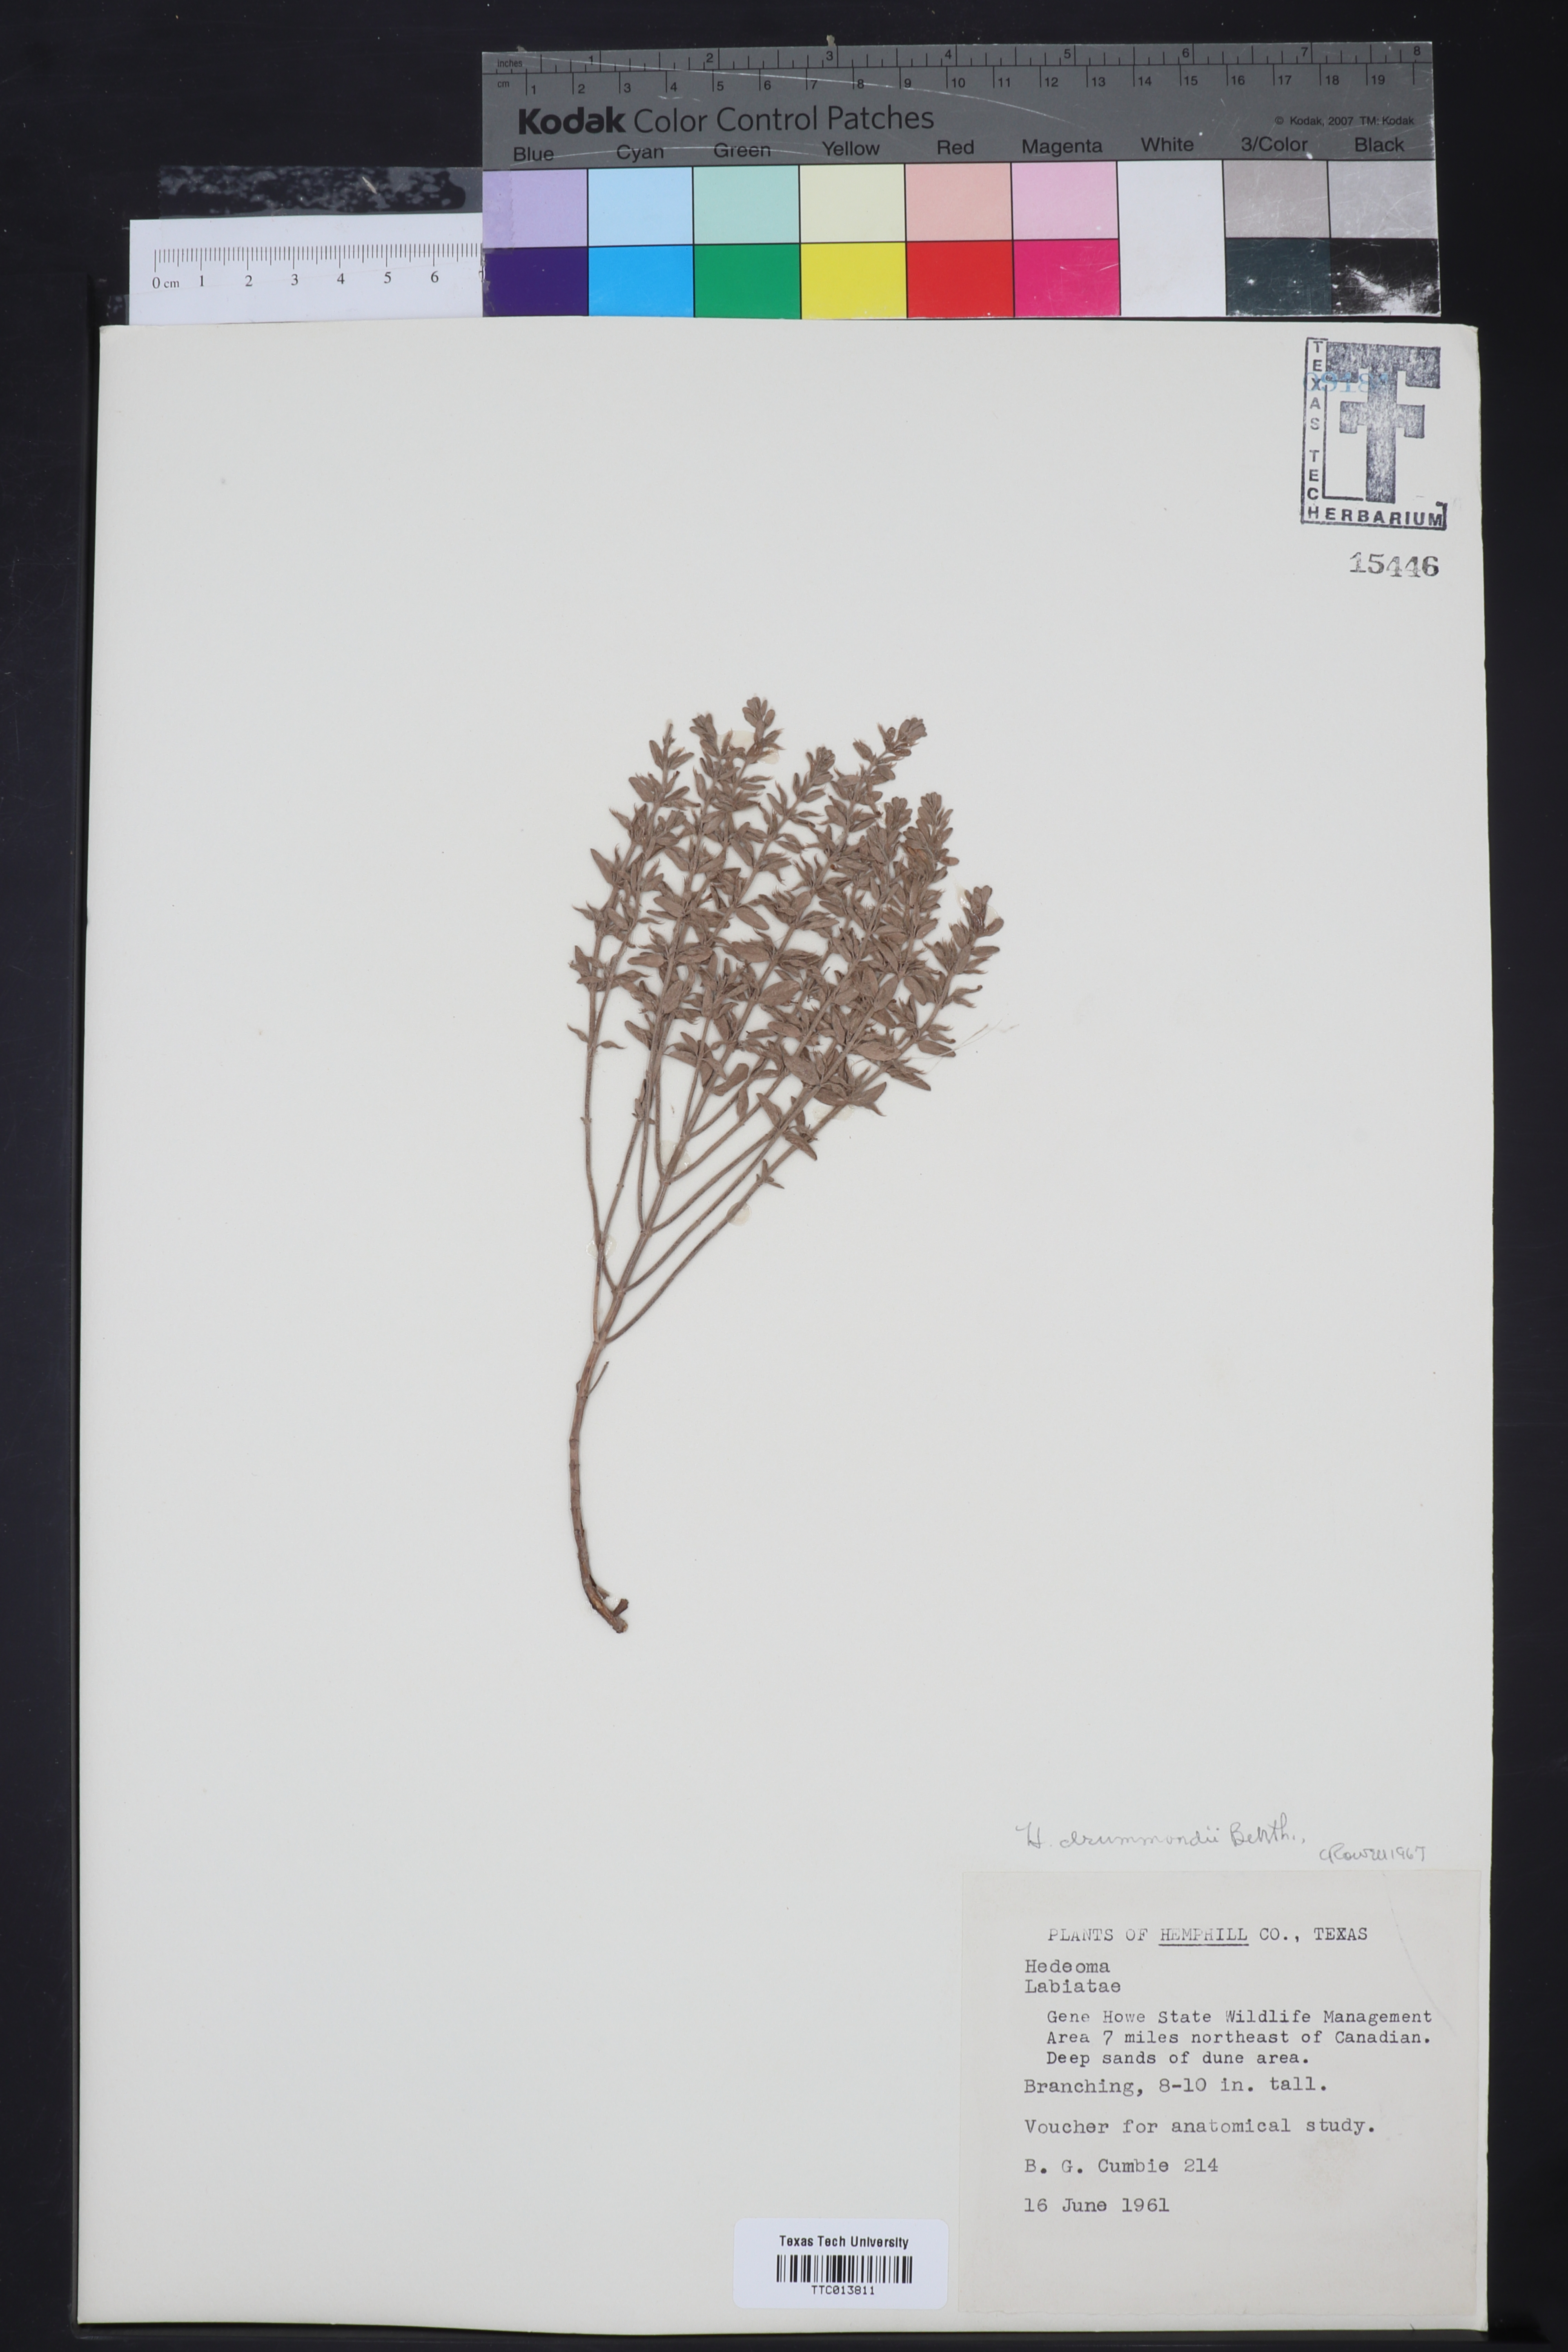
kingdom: Plantae
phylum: Tracheophyta
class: Magnoliopsida
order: Lamiales
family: Lamiaceae
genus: Hedeoma
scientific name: Hedeoma drummondii
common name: New mexico pennyroyal
